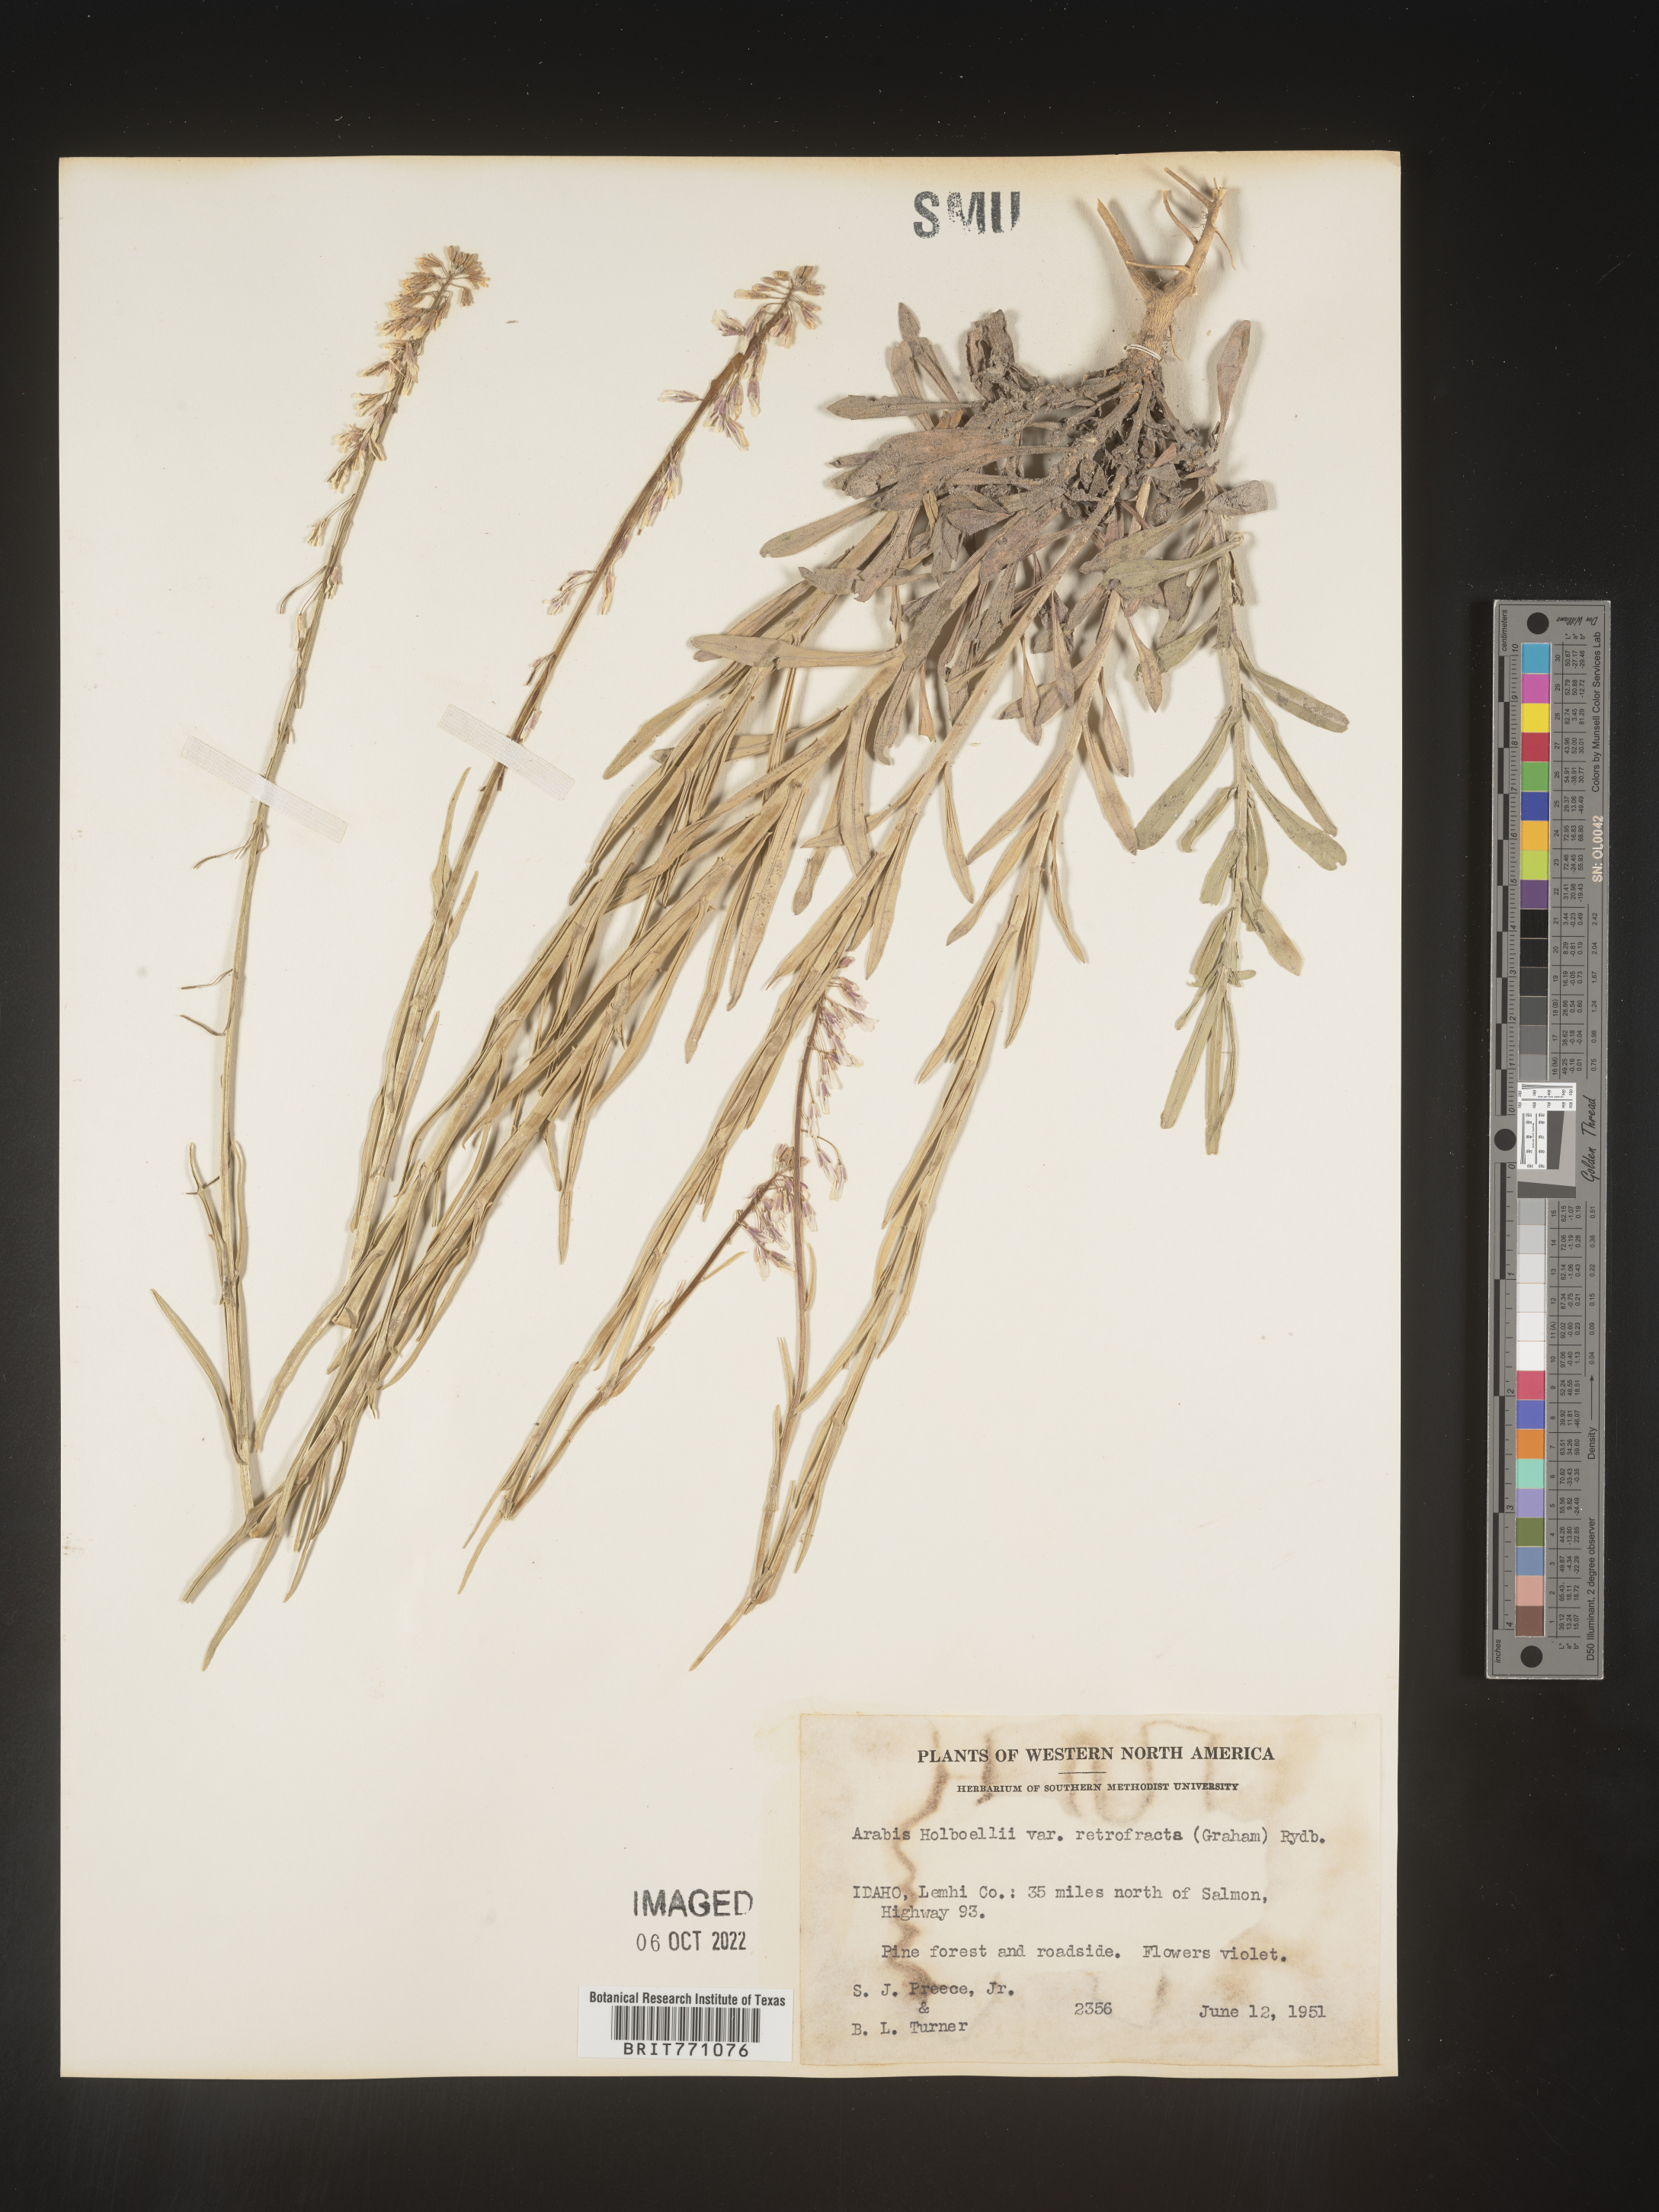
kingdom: Plantae
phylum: Tracheophyta
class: Magnoliopsida
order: Brassicales
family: Brassicaceae
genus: Boechera
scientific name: Boechera holboellii
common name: Holboell's rockcress
